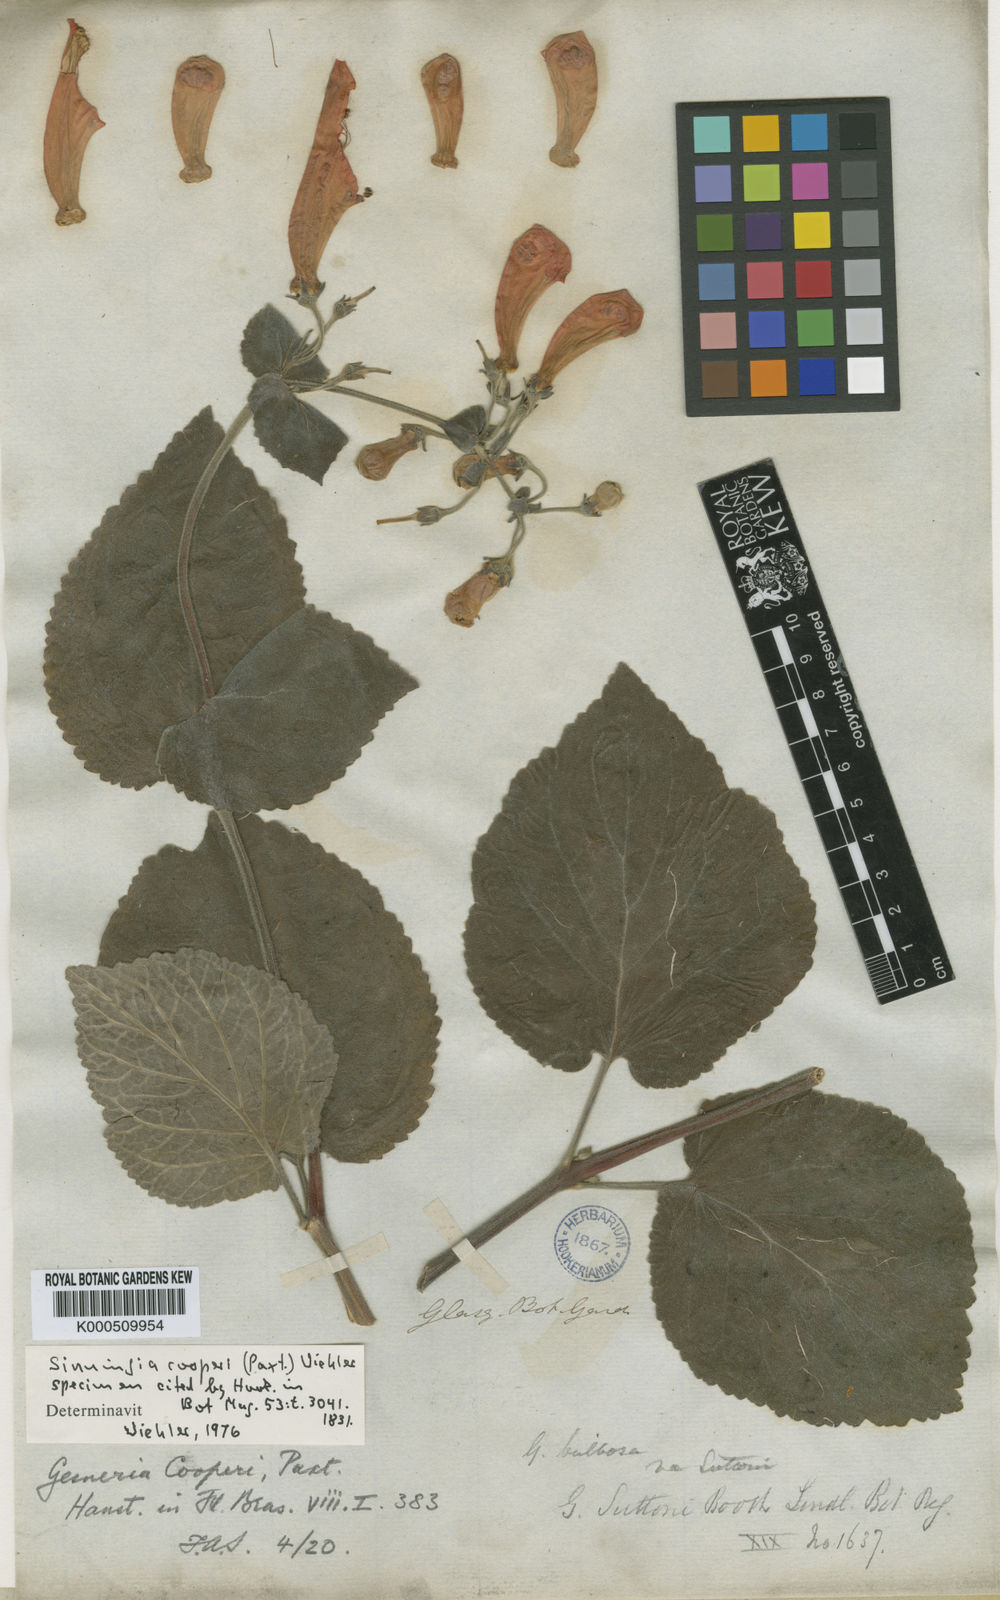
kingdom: Plantae
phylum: Tracheophyta
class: Magnoliopsida
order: Lamiales
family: Gesneriaceae
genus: Sinningia
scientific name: Sinningia cooperi
